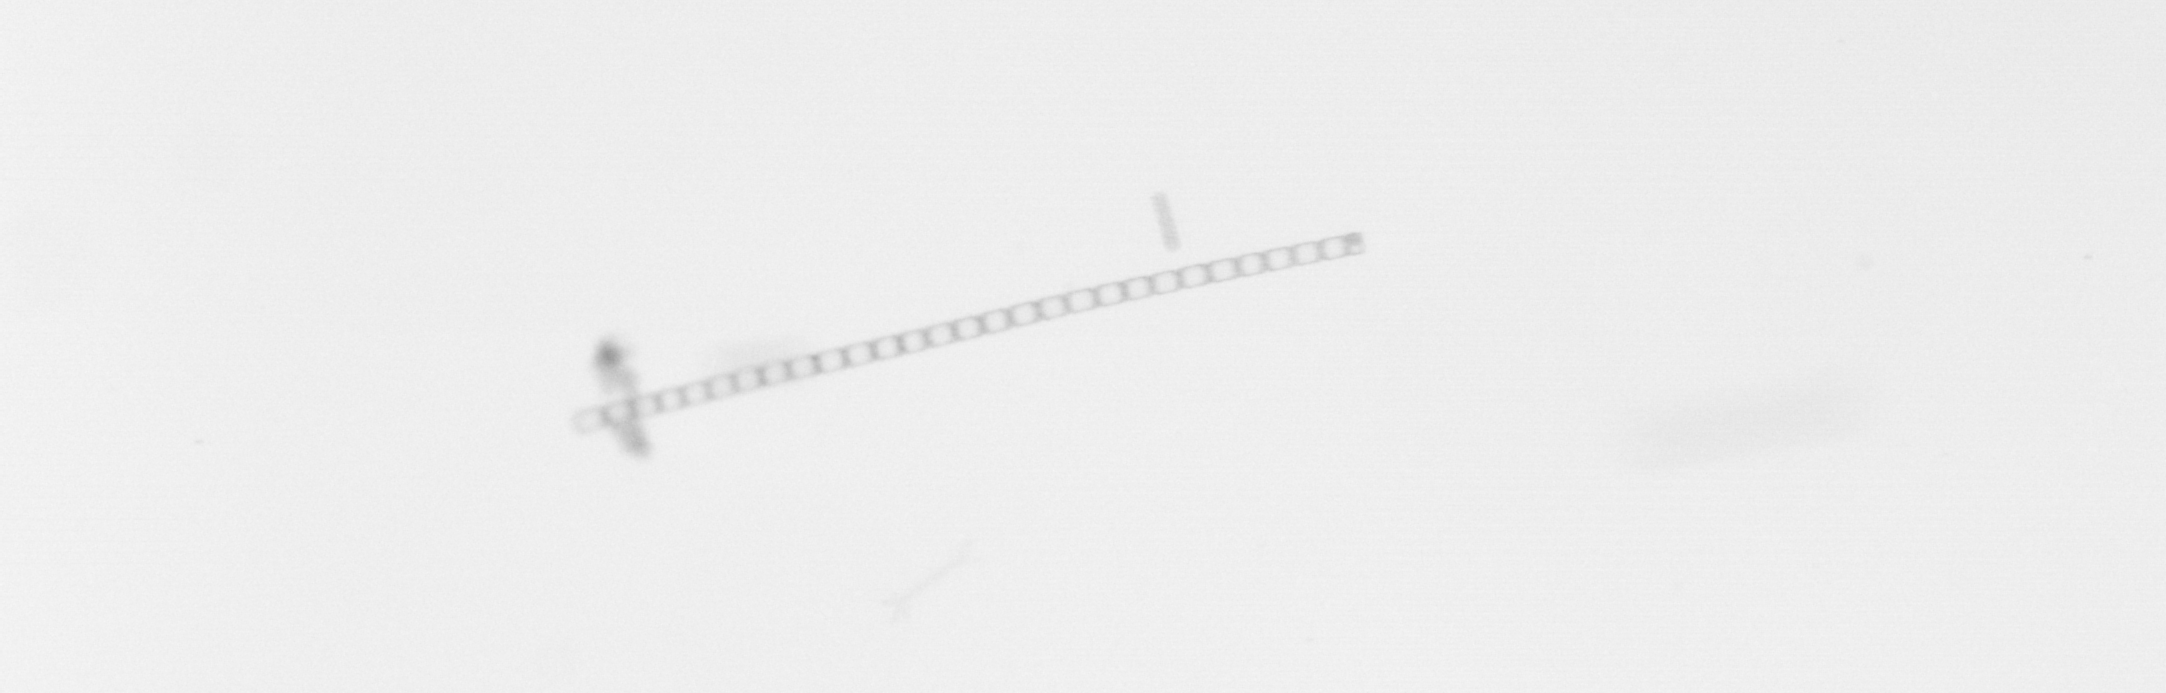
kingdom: Chromista
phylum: Ochrophyta
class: Bacillariophyceae
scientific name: Bacillariophyceae
